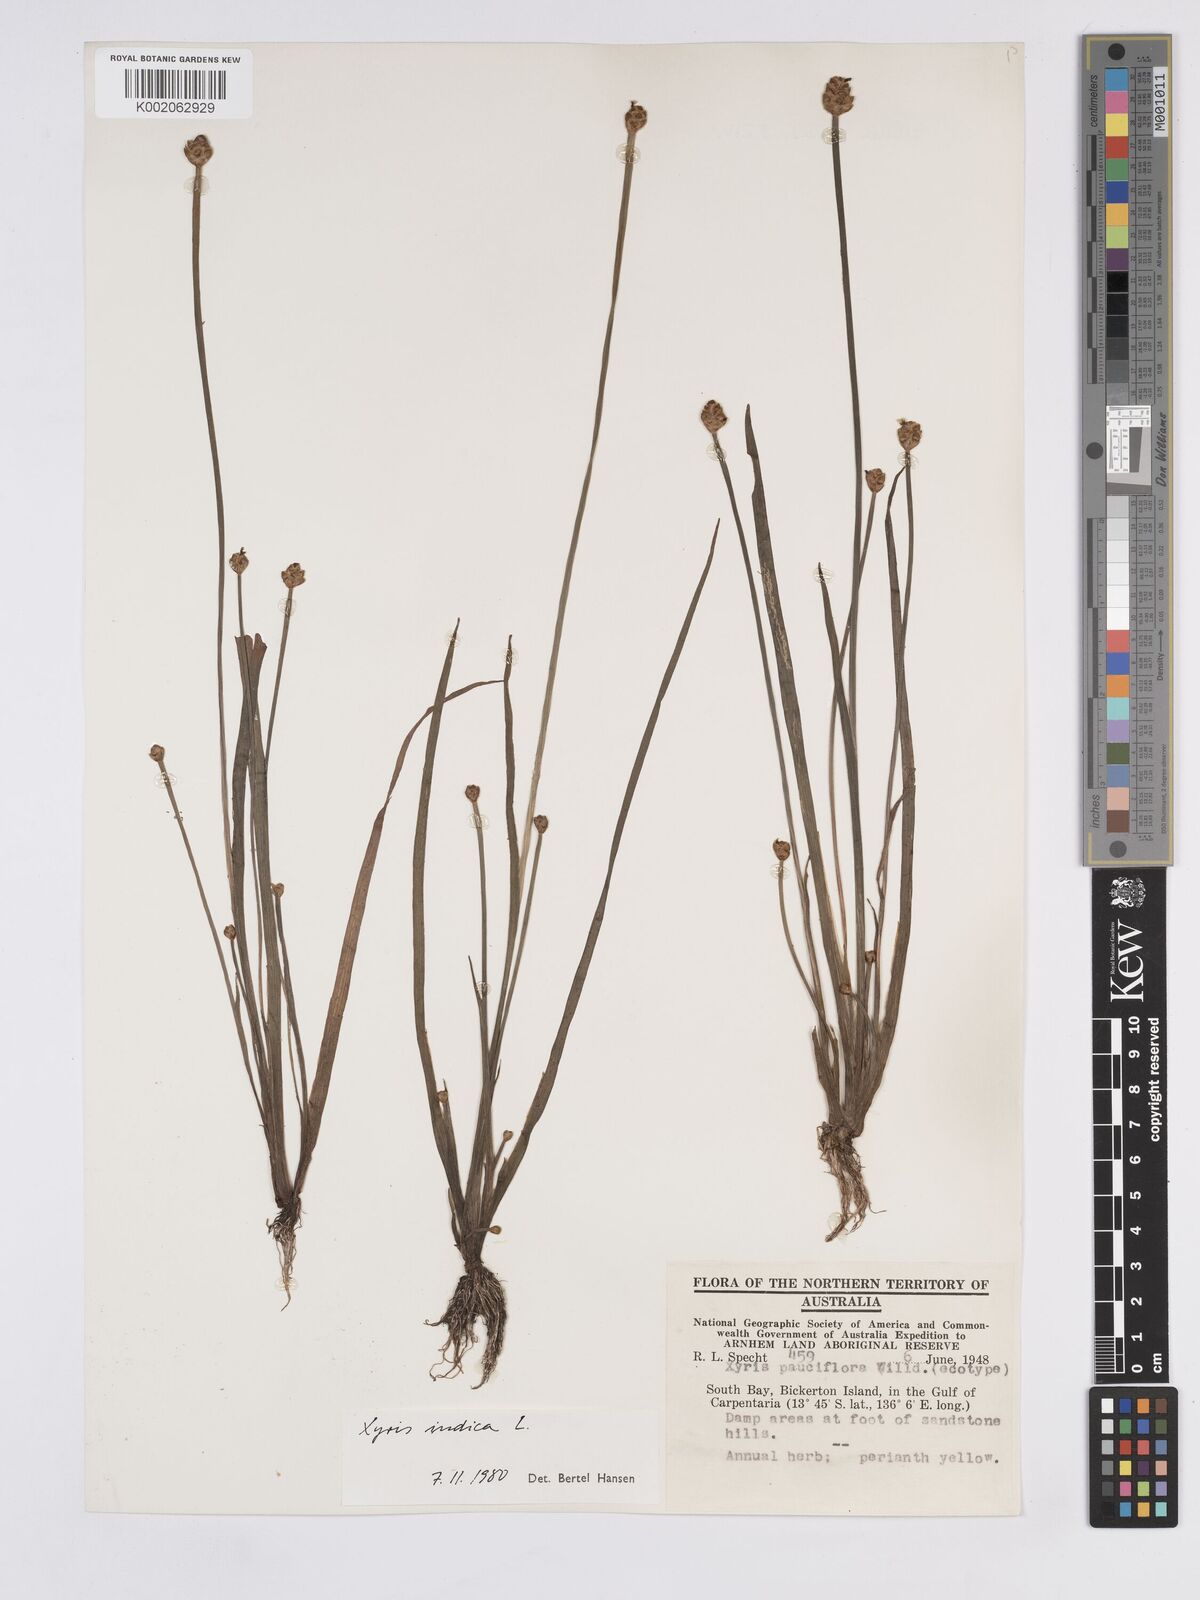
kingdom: Plantae
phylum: Tracheophyta
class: Liliopsida
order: Poales
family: Xyridaceae
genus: Xyris
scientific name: Xyris indica
